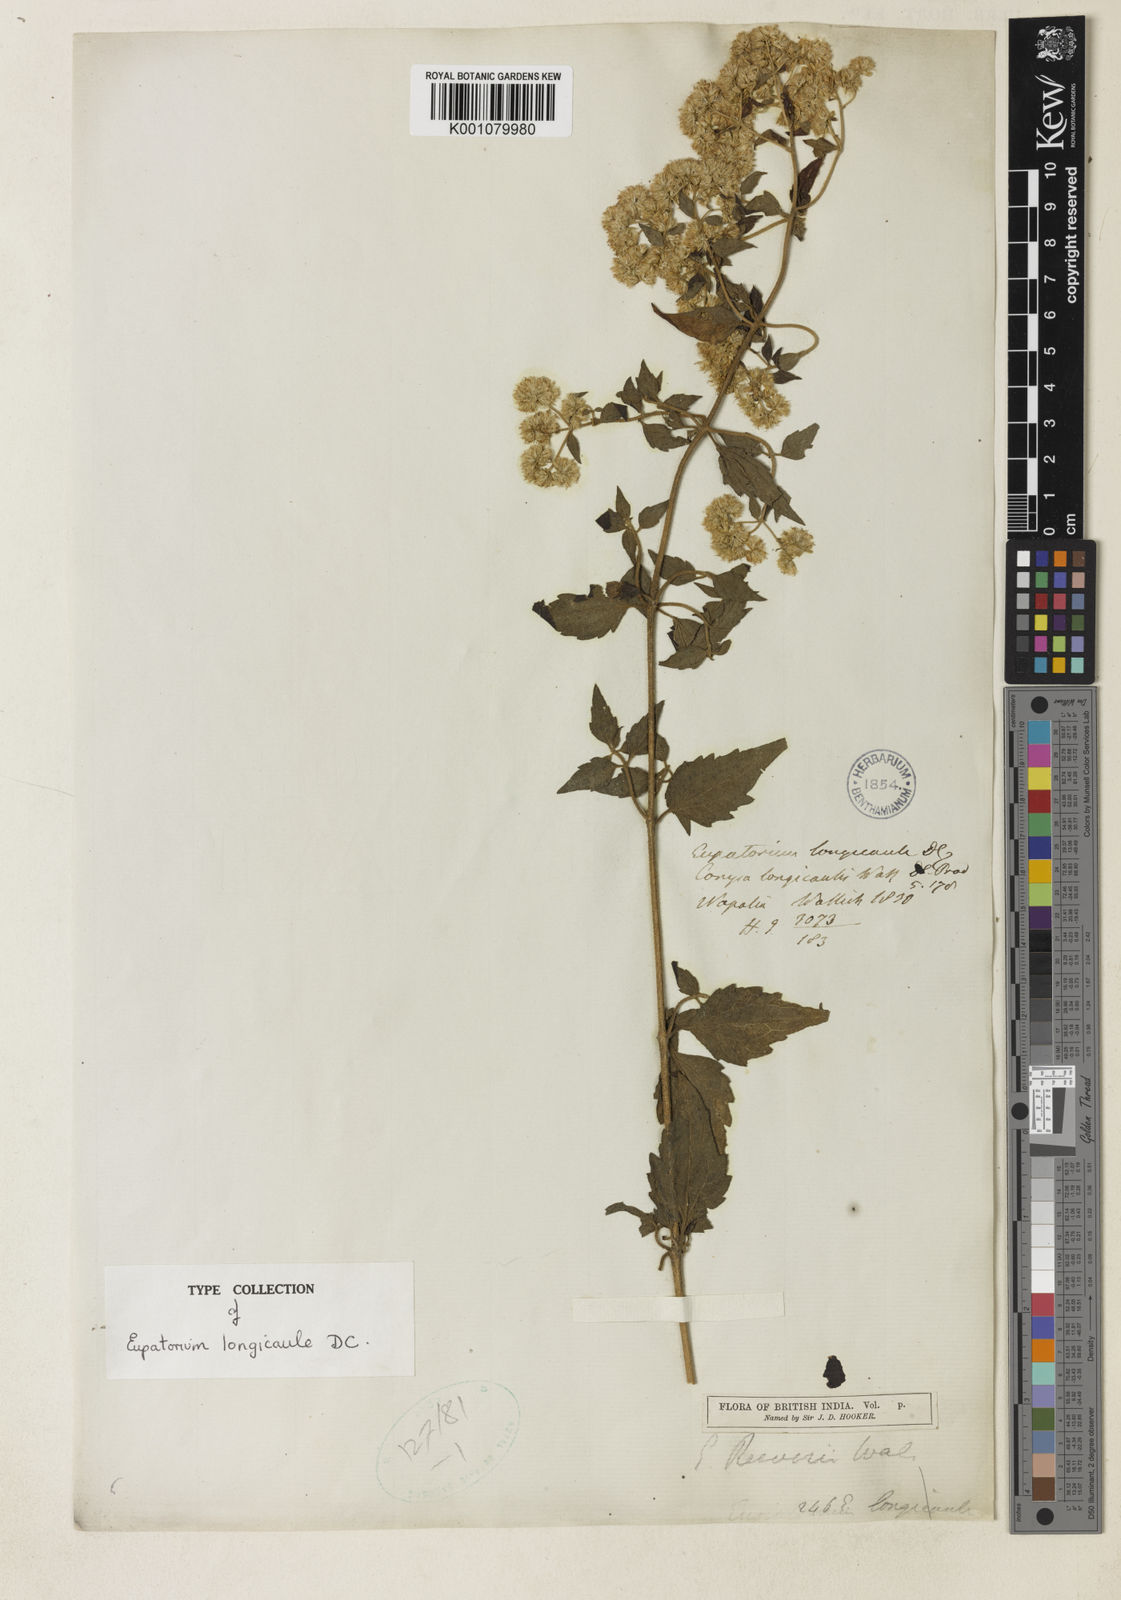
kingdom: Plantae
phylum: Tracheophyta
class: Magnoliopsida
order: Asterales
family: Asteraceae
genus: Eupatorium
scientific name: Eupatorium reevesii
